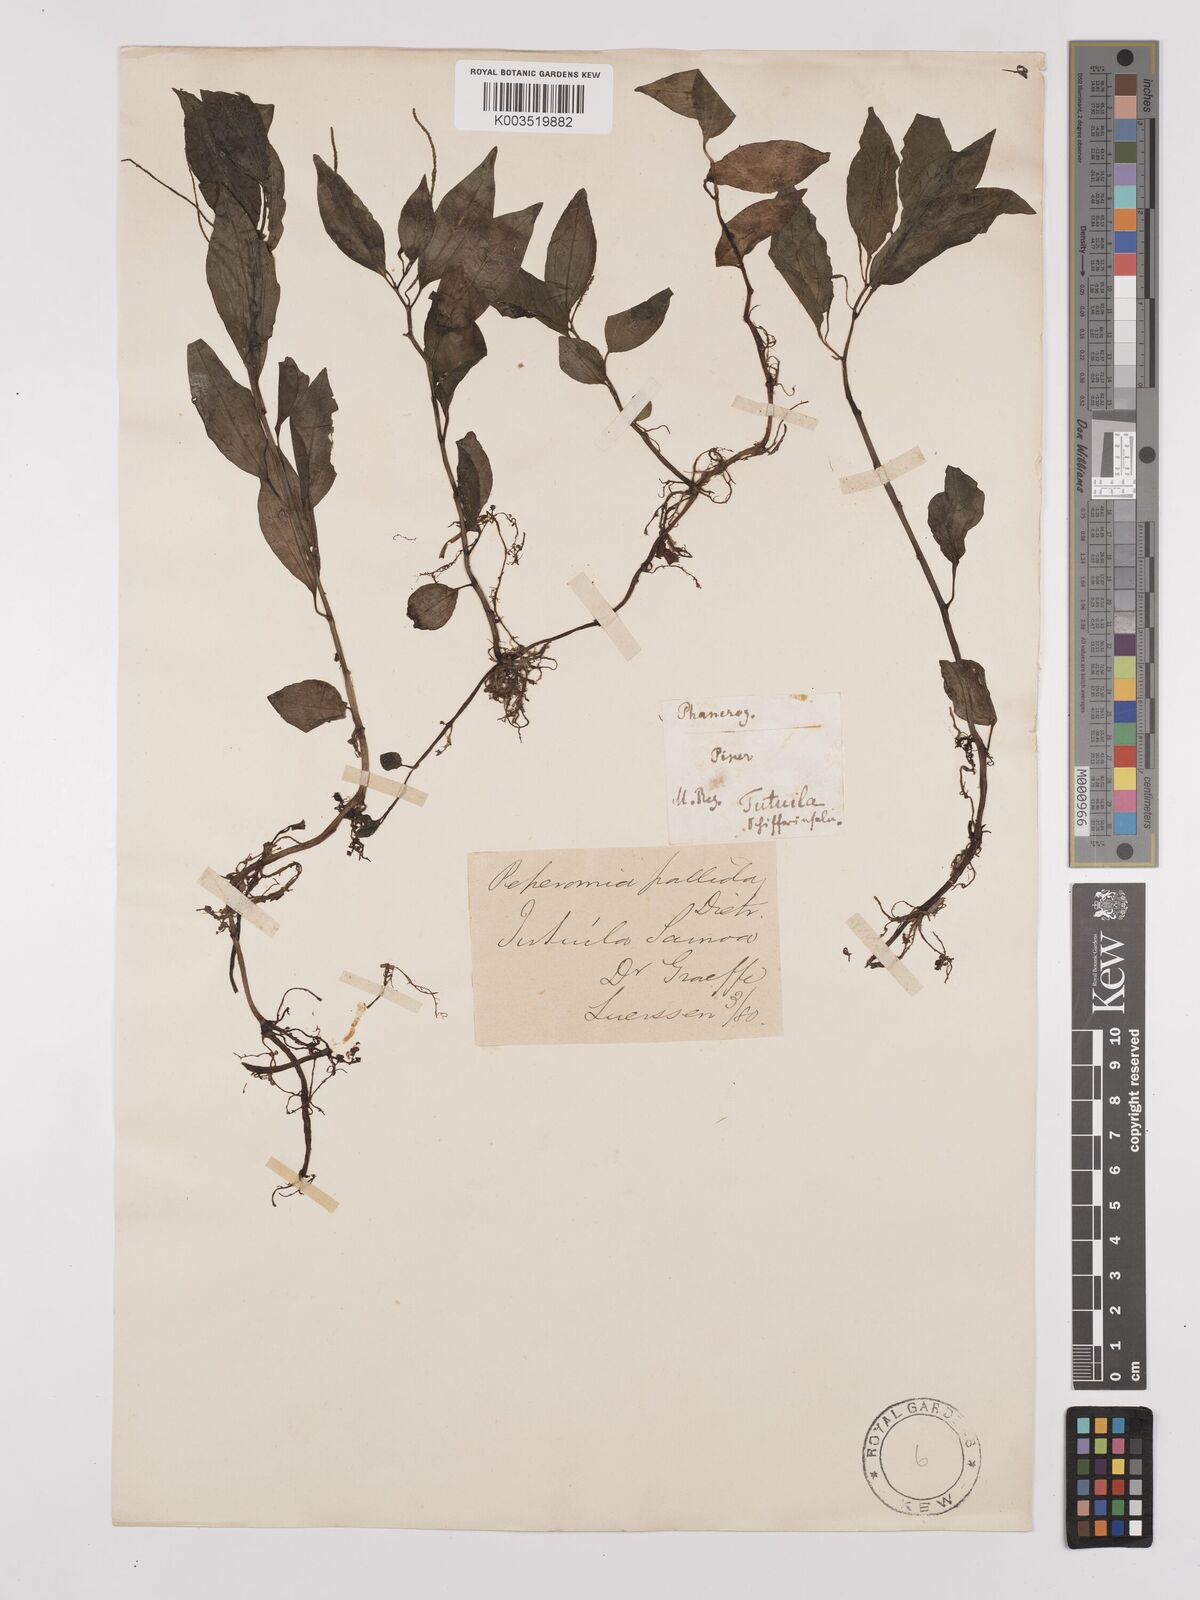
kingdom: Plantae
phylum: Tracheophyta
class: Magnoliopsida
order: Piperales
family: Piperaceae
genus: Peperomia
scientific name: Peperomia vitiana
